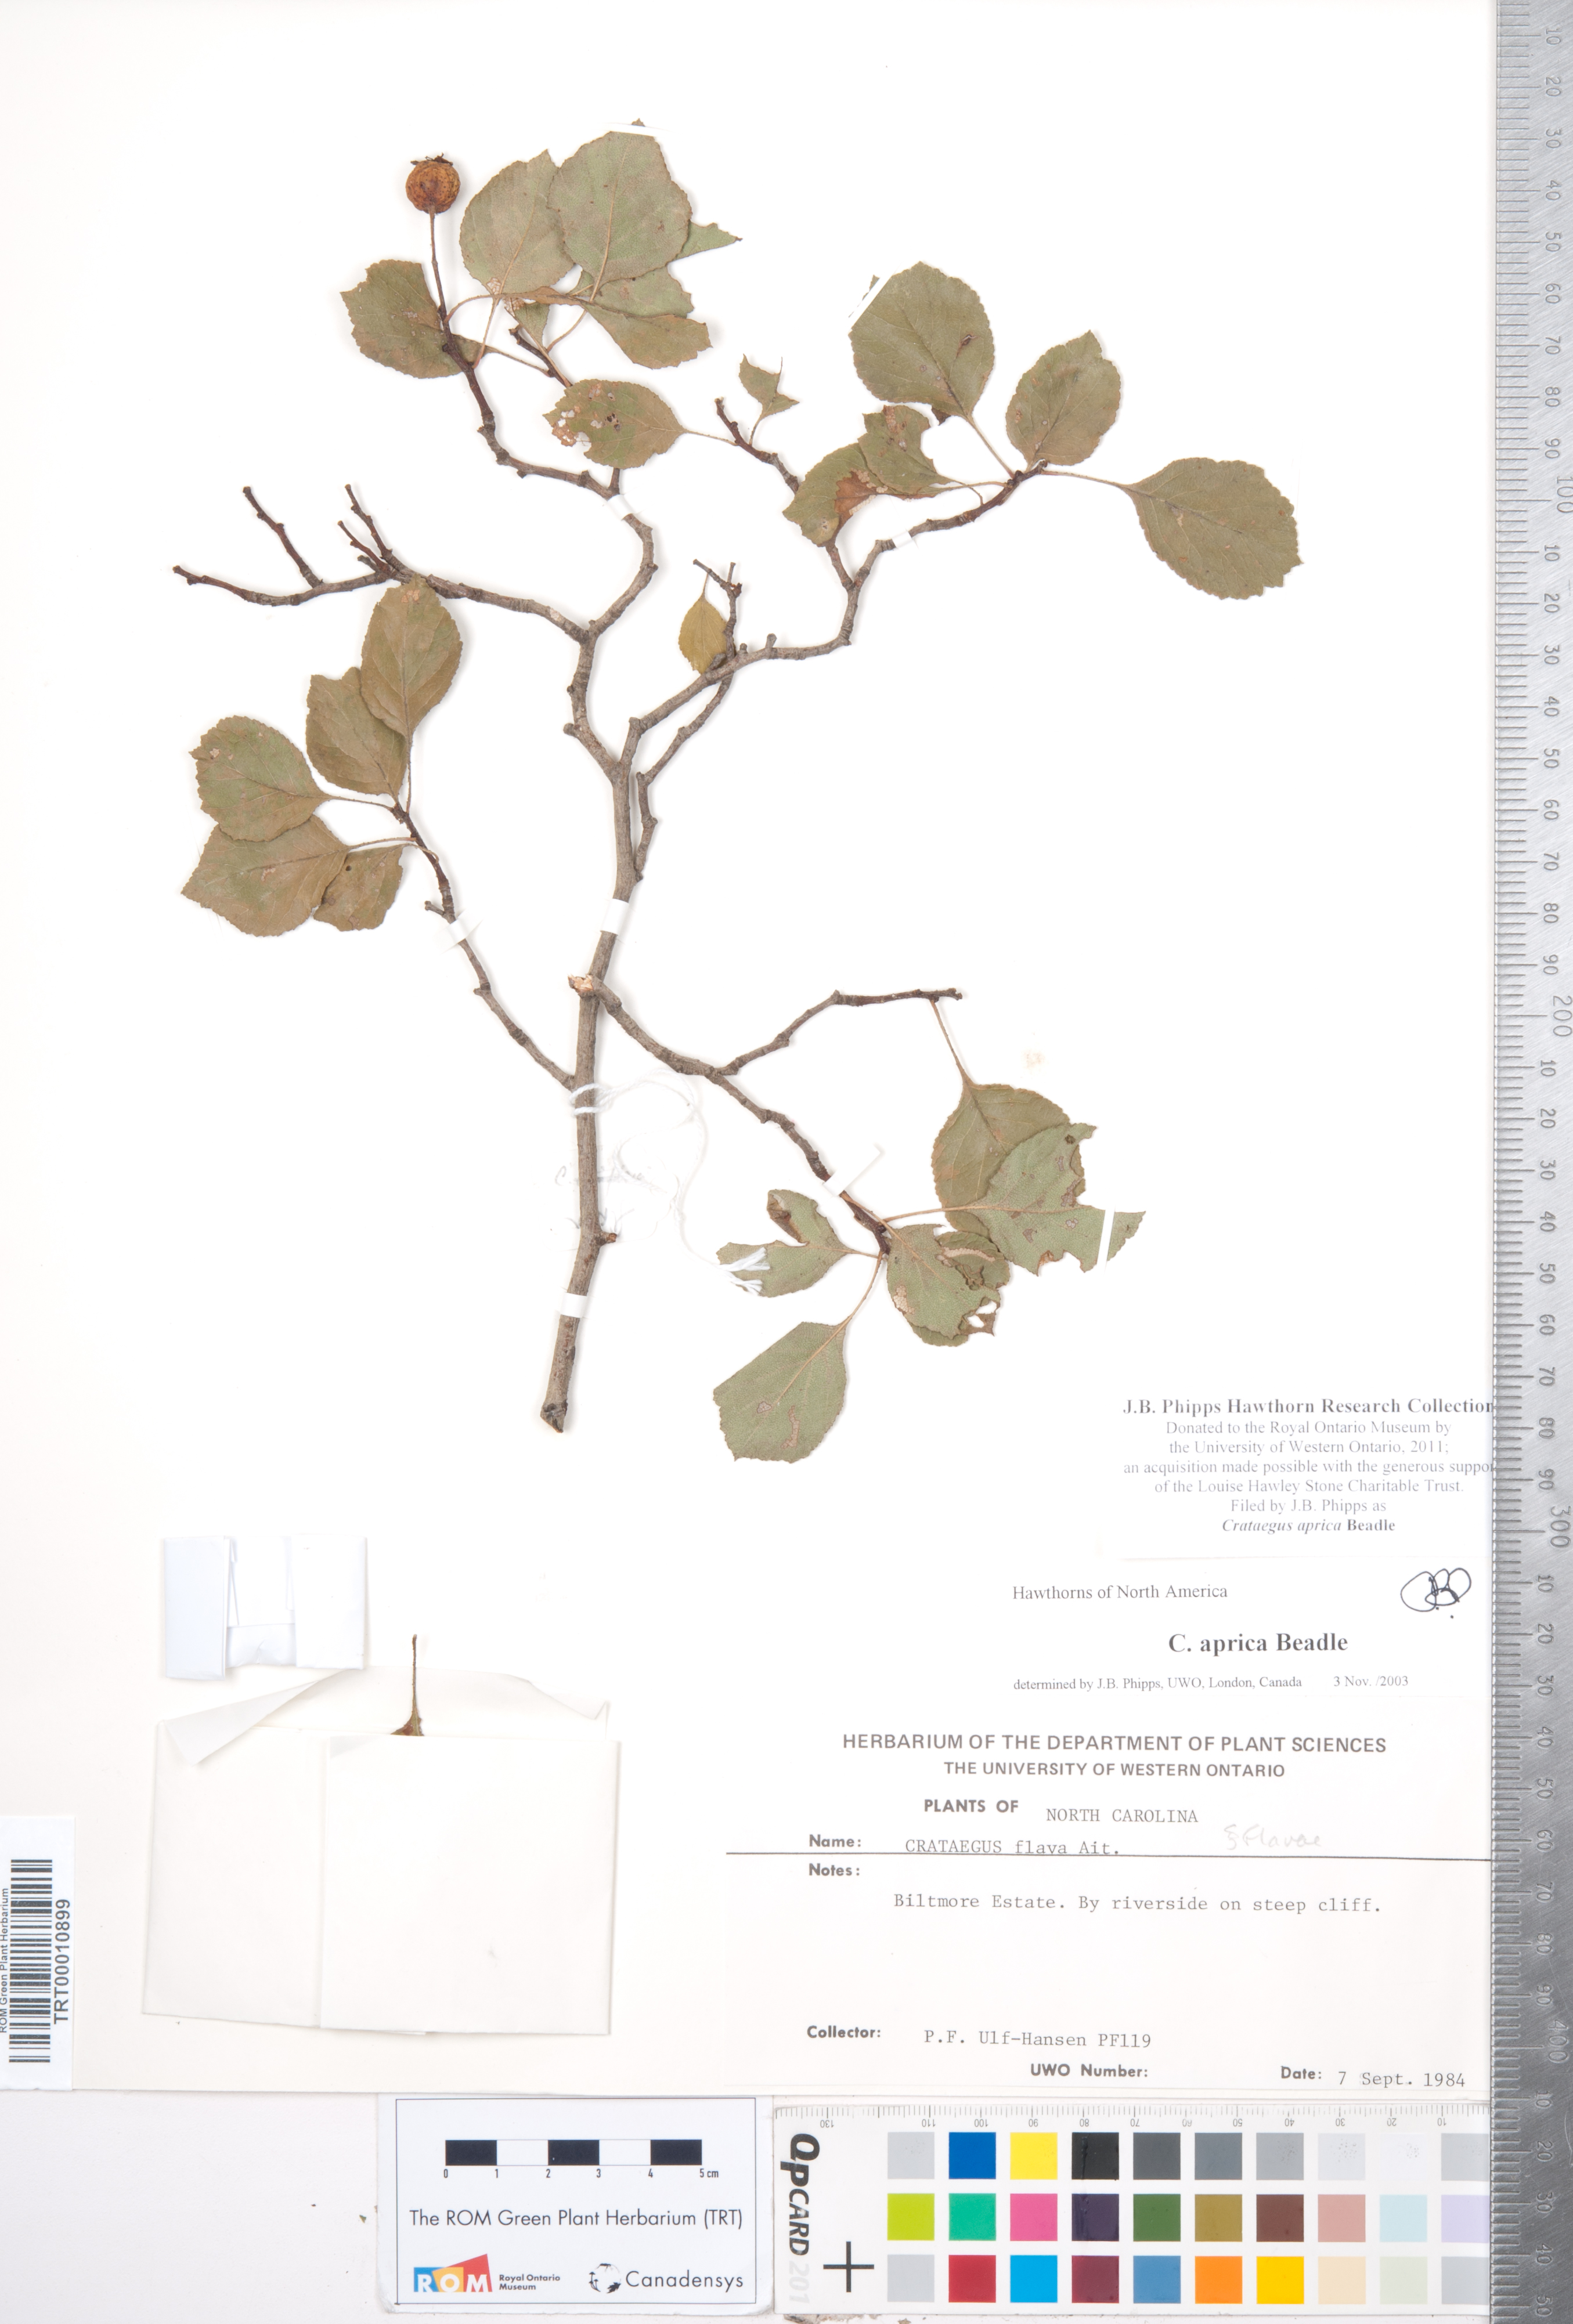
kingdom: Plantae
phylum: Tracheophyta
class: Magnoliopsida
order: Rosales
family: Rosaceae
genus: Crataegus
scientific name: Crataegus aprica
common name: Sunny hawthorn
